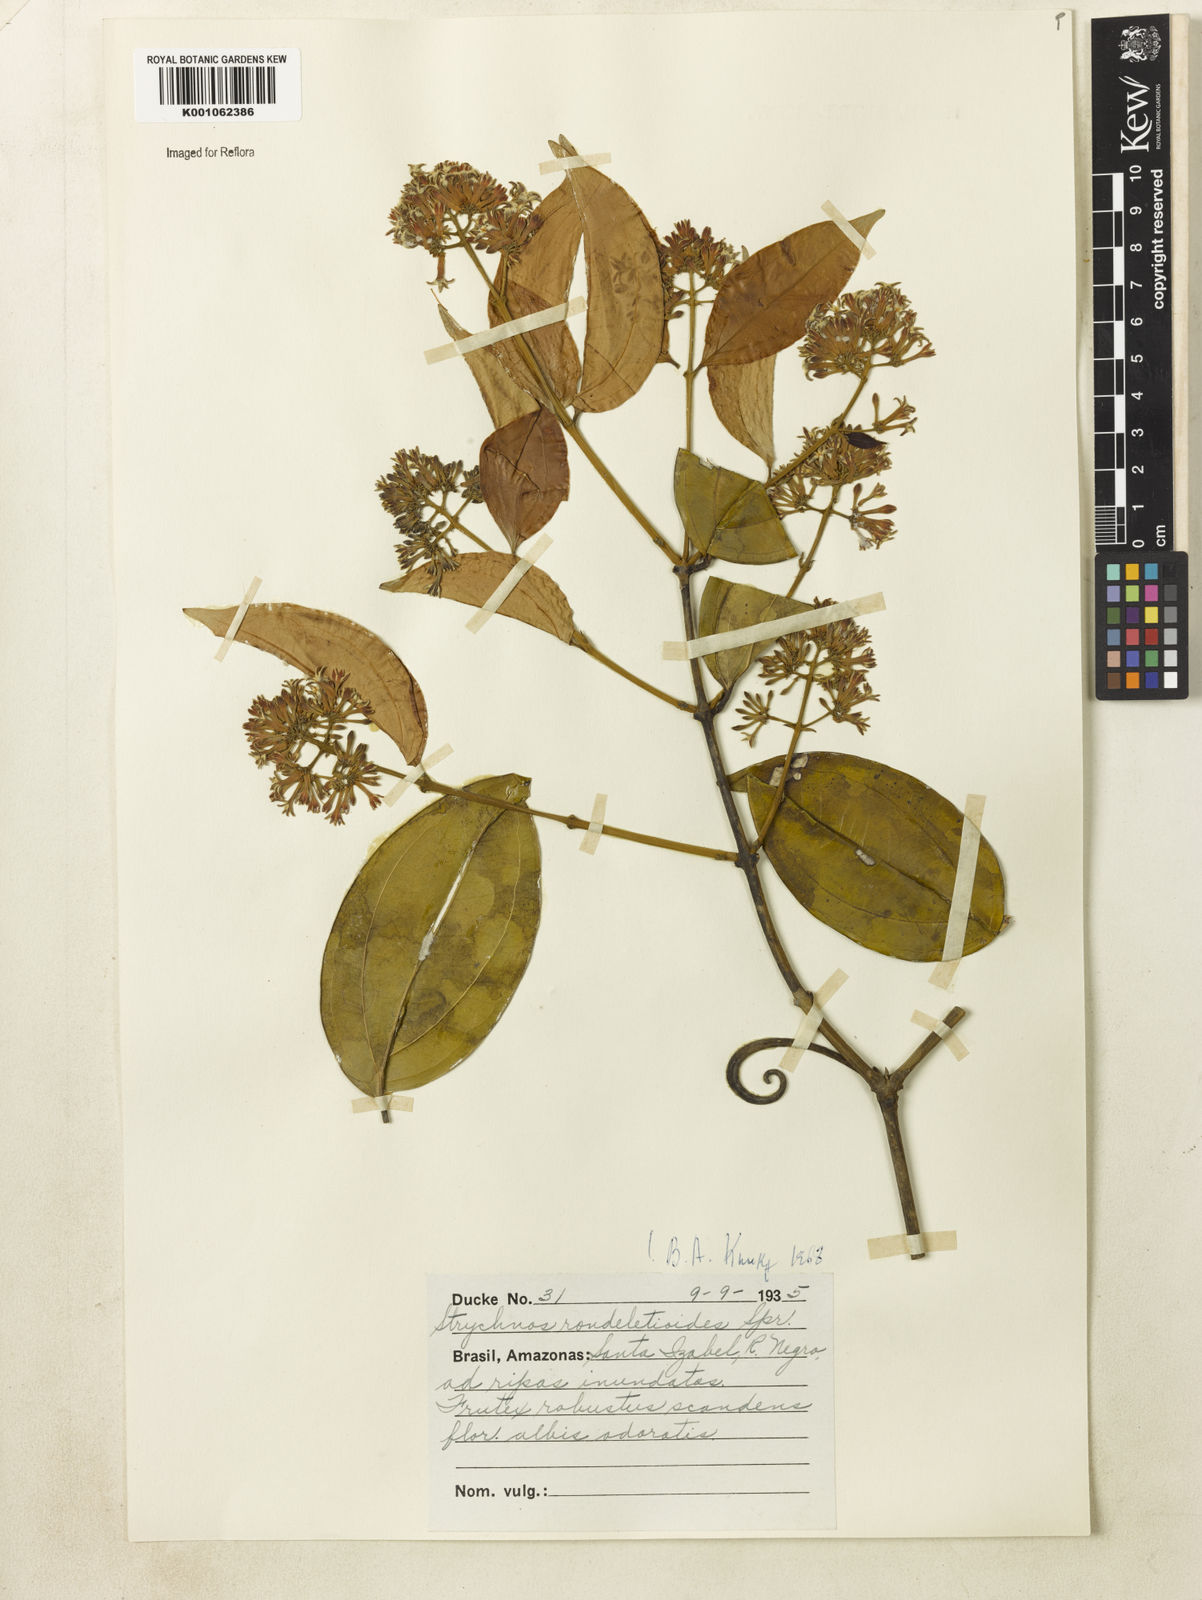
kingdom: Plantae
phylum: Tracheophyta
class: Magnoliopsida
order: Gentianales
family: Loganiaceae
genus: Strychnos
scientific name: Strychnos rondeletioides
